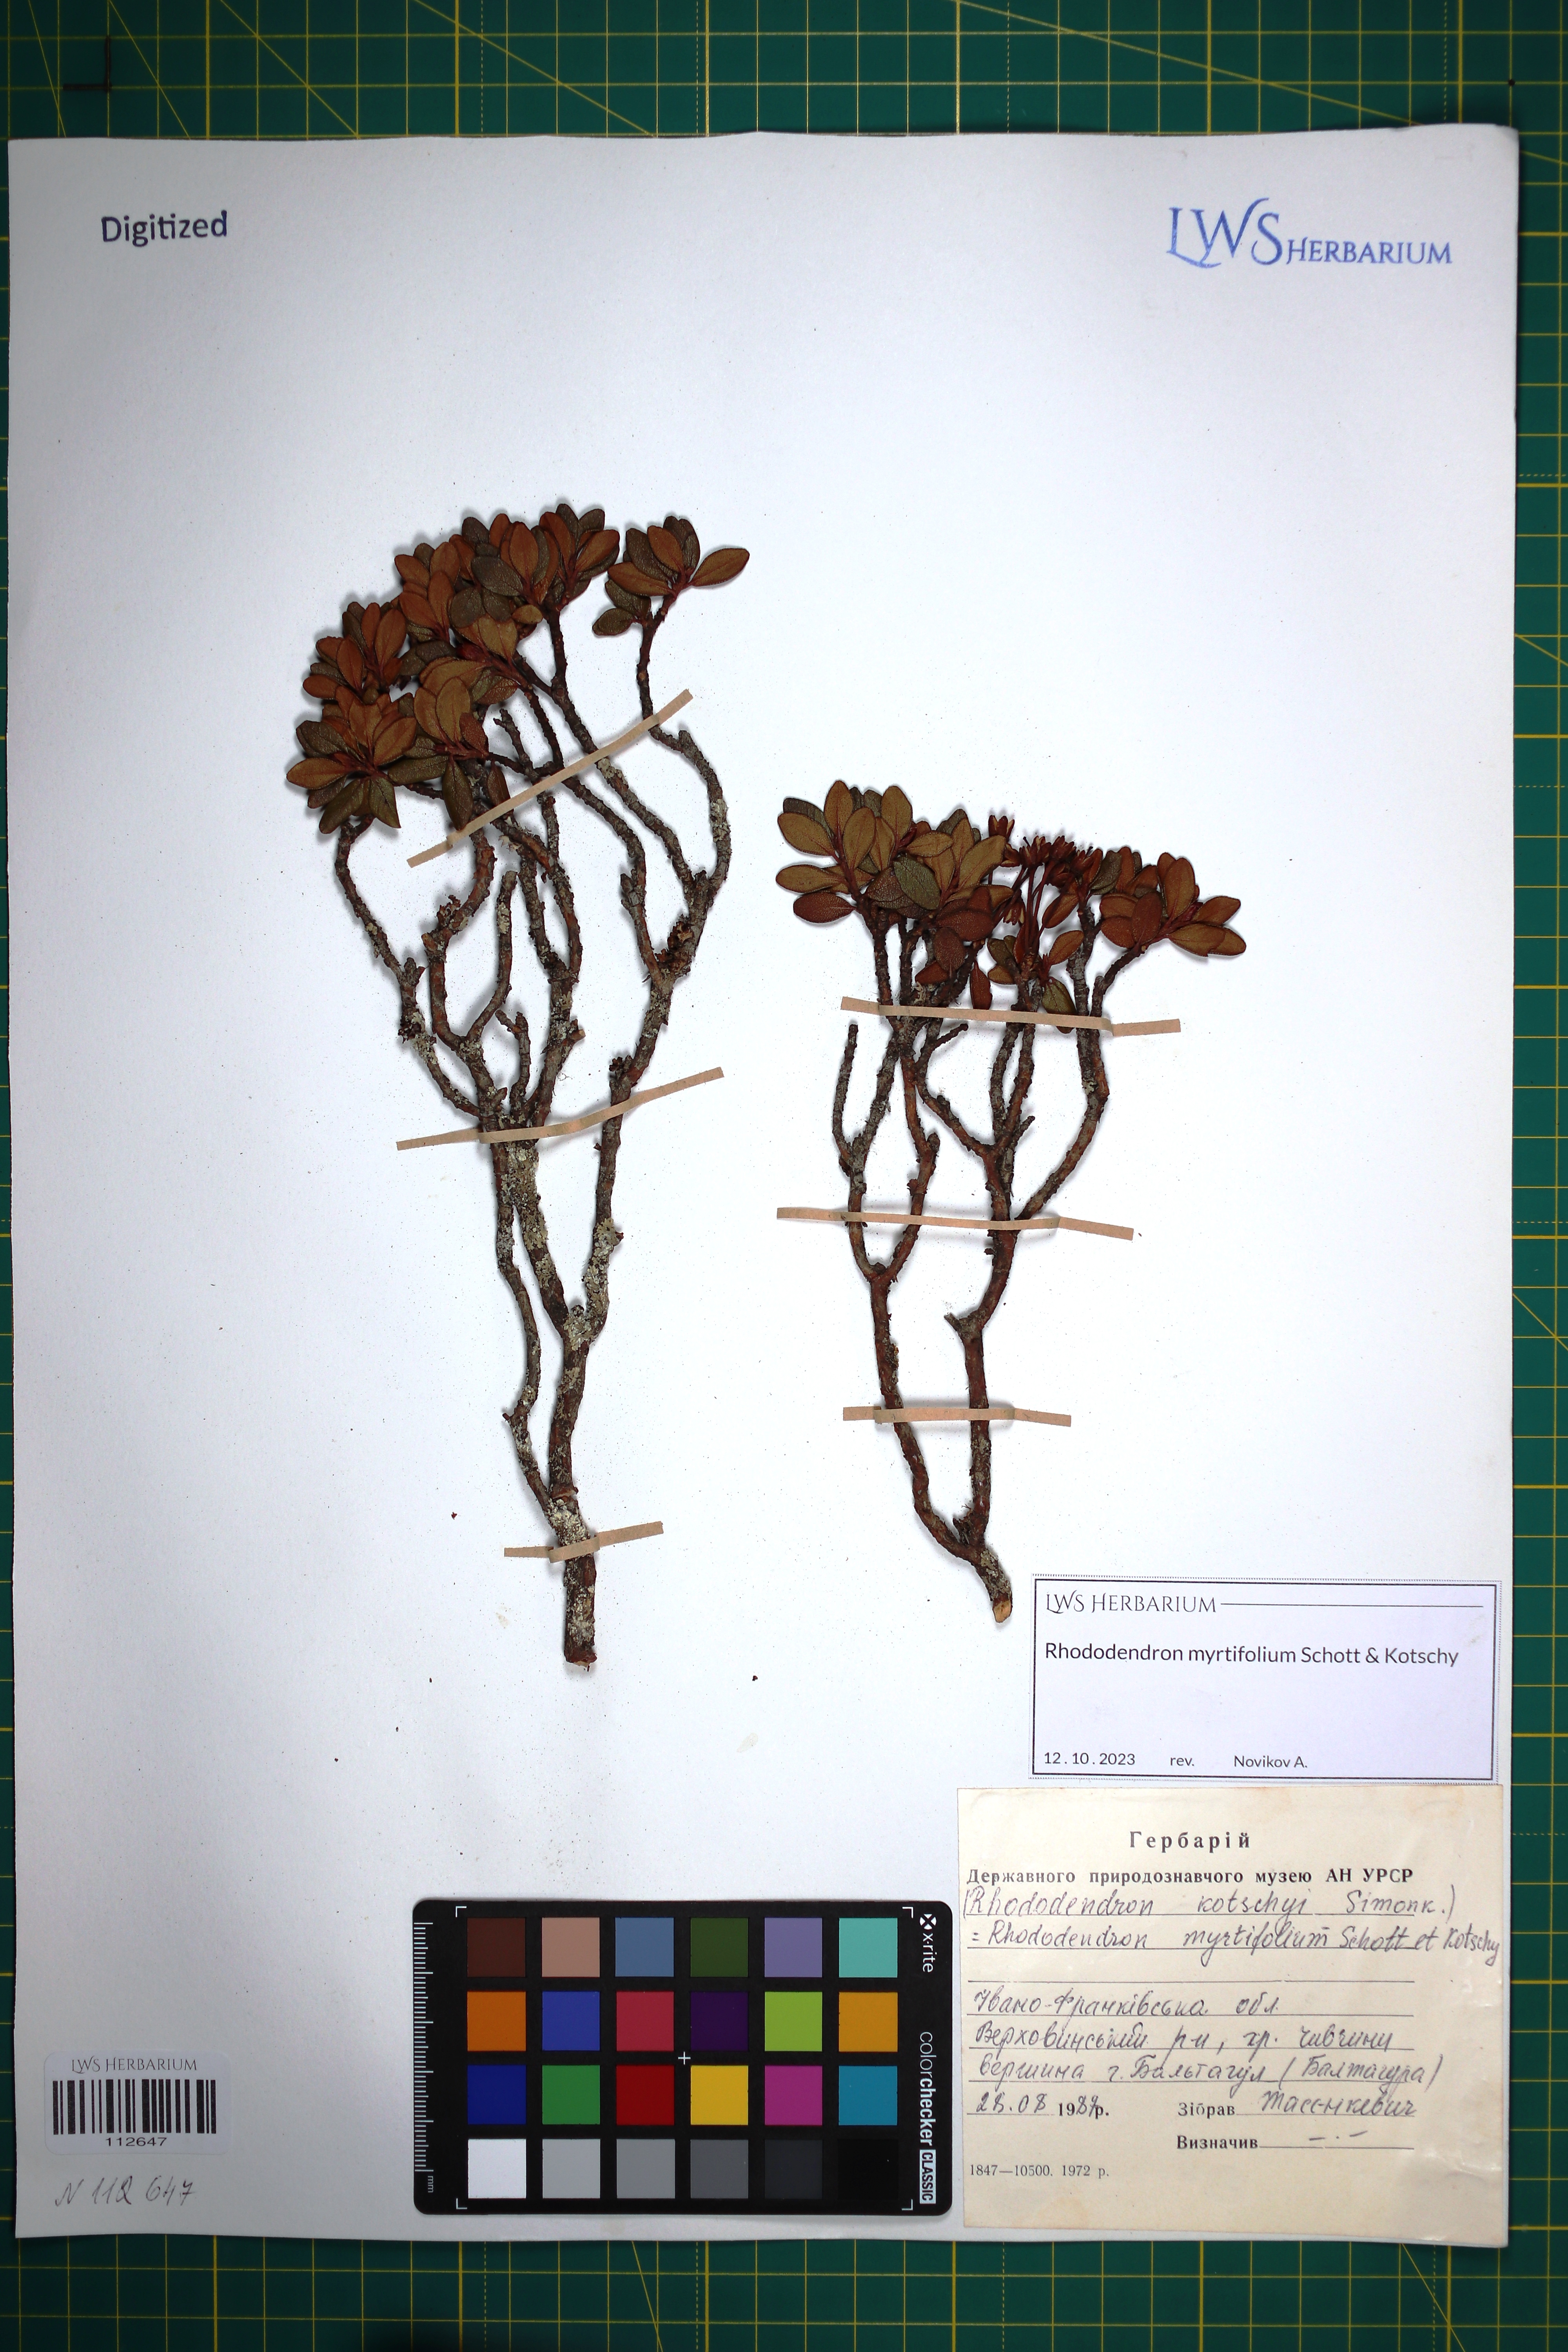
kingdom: Plantae
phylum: Tracheophyta
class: Magnoliopsida
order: Ericales
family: Ericaceae
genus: Rhododendron
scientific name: Rhododendron kotschyi
